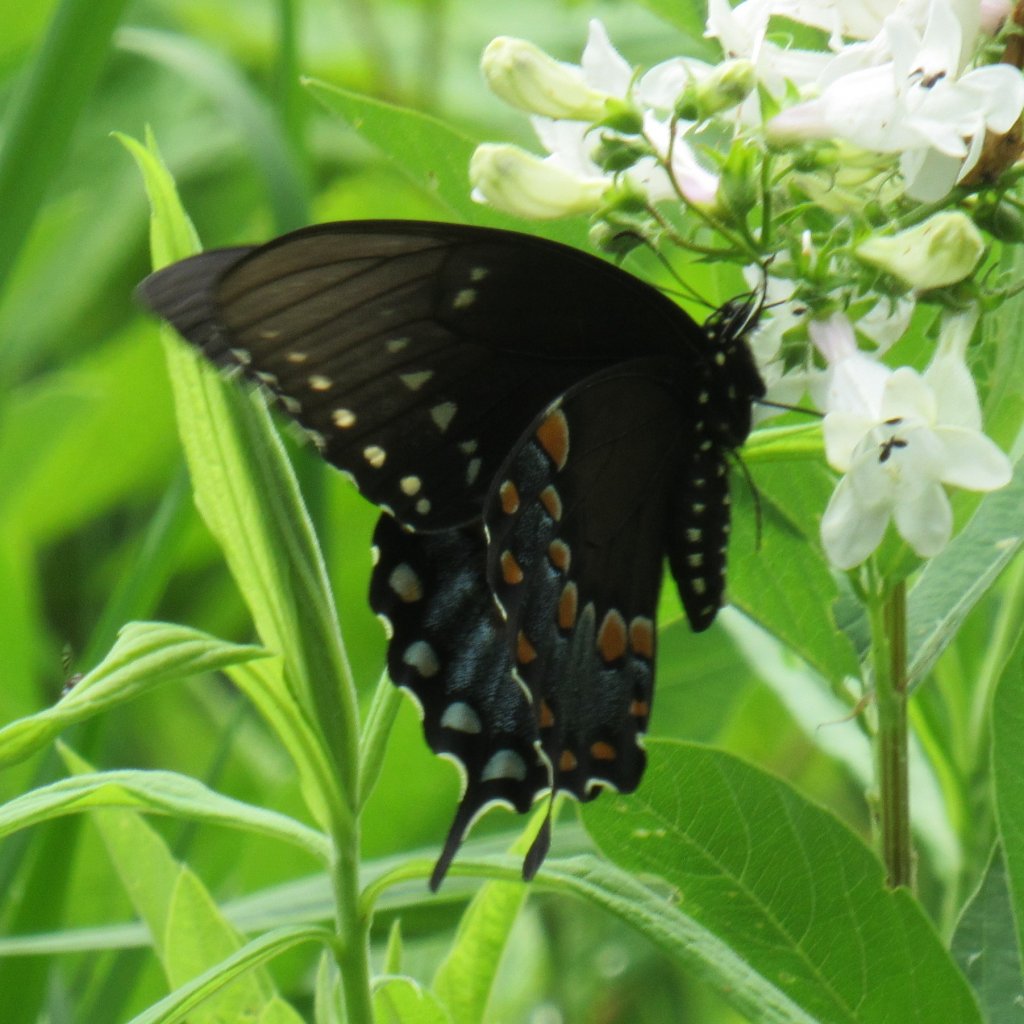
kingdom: Animalia
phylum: Arthropoda
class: Insecta
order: Lepidoptera
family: Papilionidae
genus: Pterourus
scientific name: Pterourus troilus
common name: Spicebush Swallowtail
